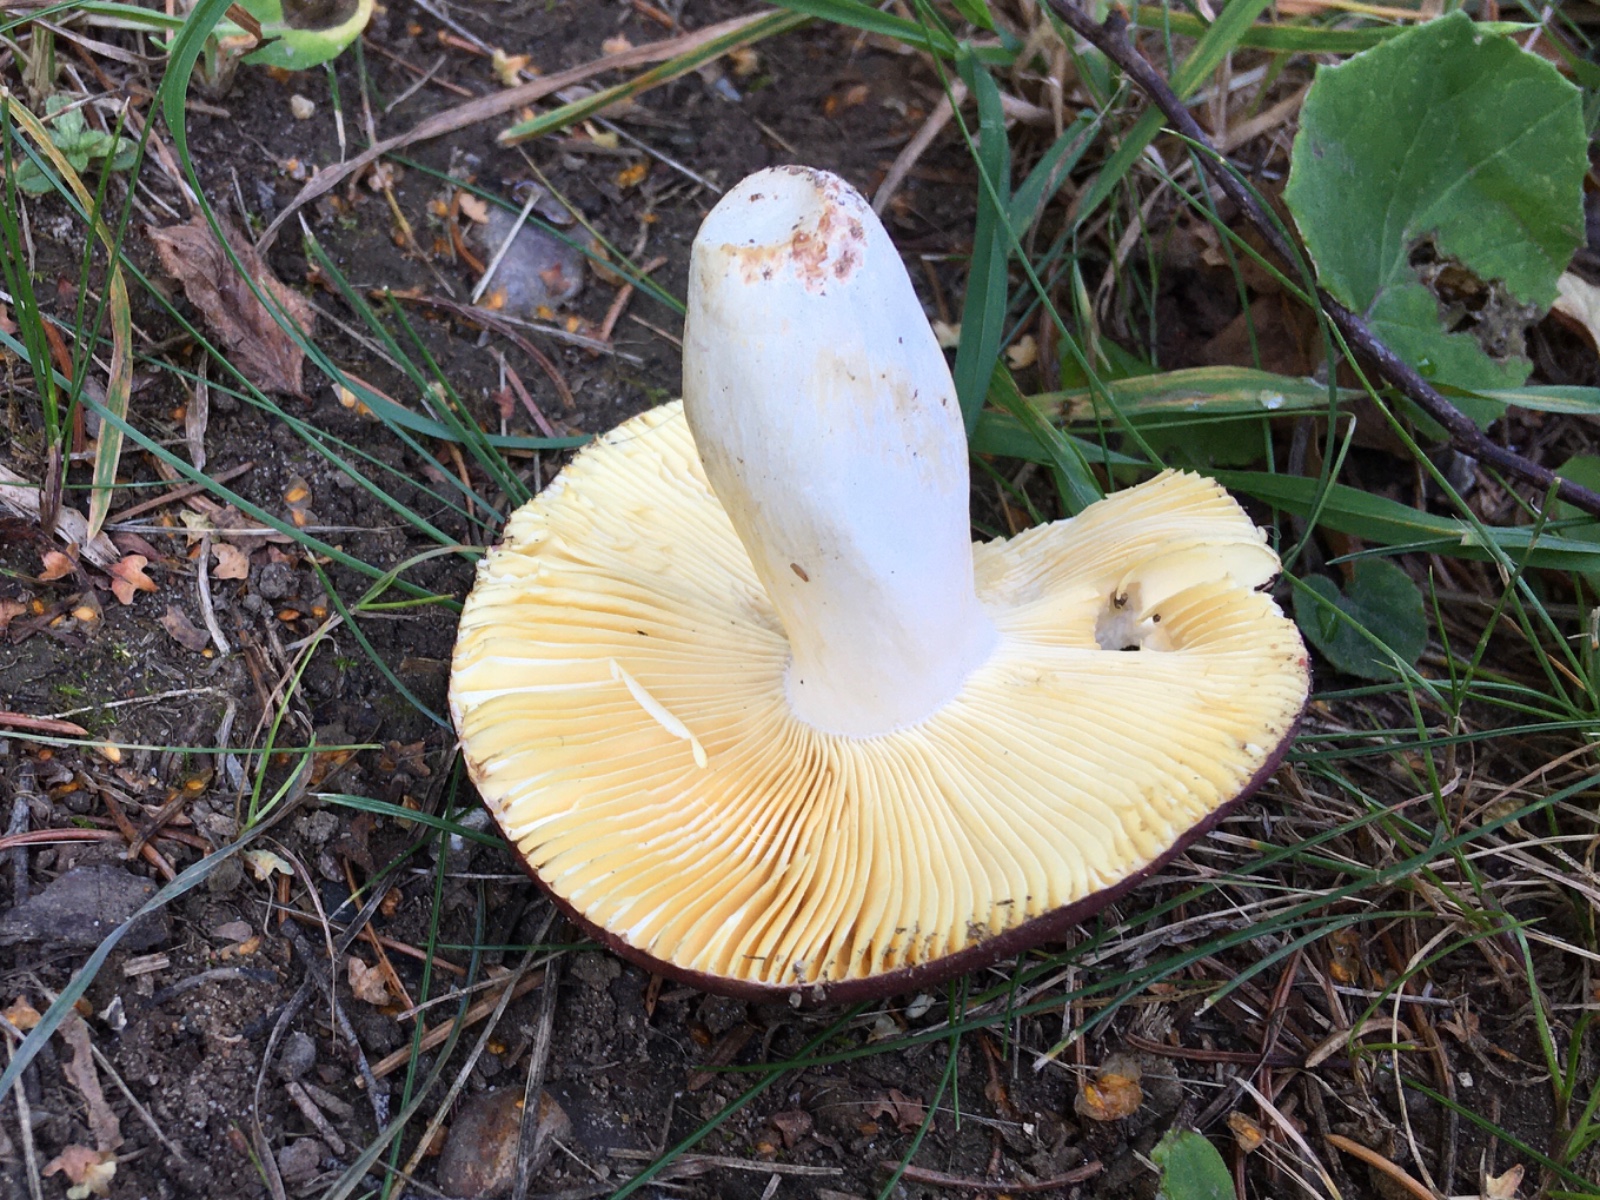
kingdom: Fungi
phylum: Basidiomycota
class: Agaricomycetes
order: Russulales
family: Russulaceae
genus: Russula
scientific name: Russula
